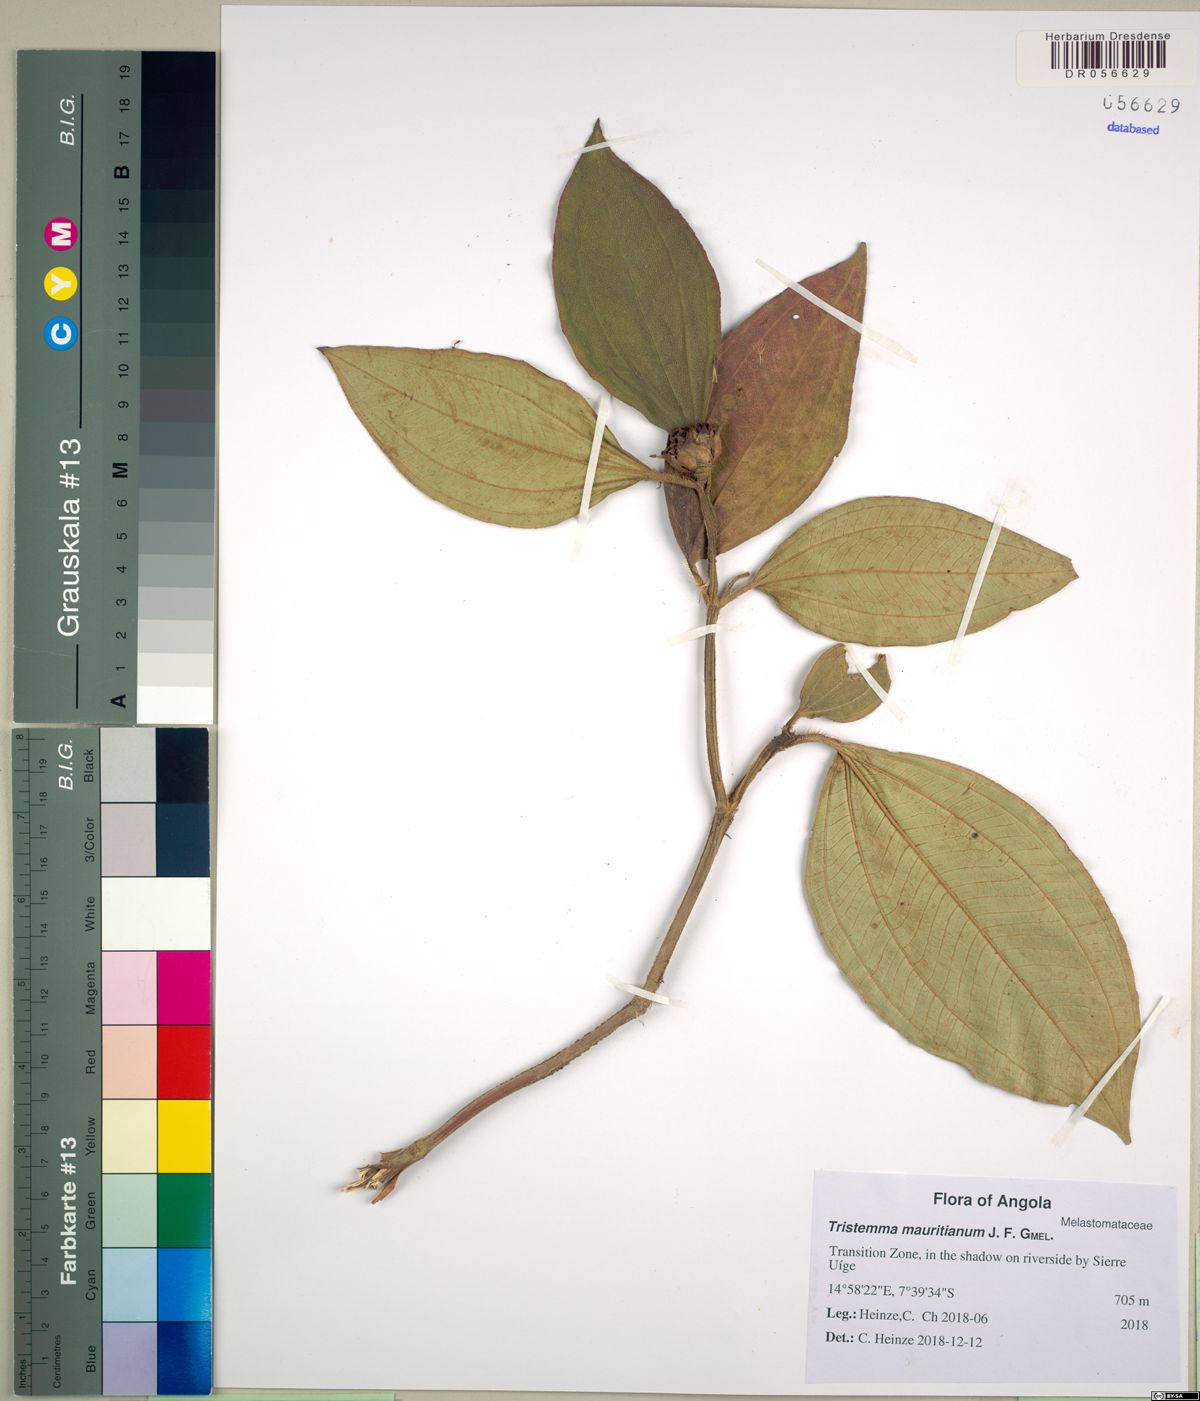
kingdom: Plantae
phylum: Tracheophyta
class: Magnoliopsida
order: Myrtales
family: Melastomataceae
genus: Tristemma
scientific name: Tristemma mauritianum
